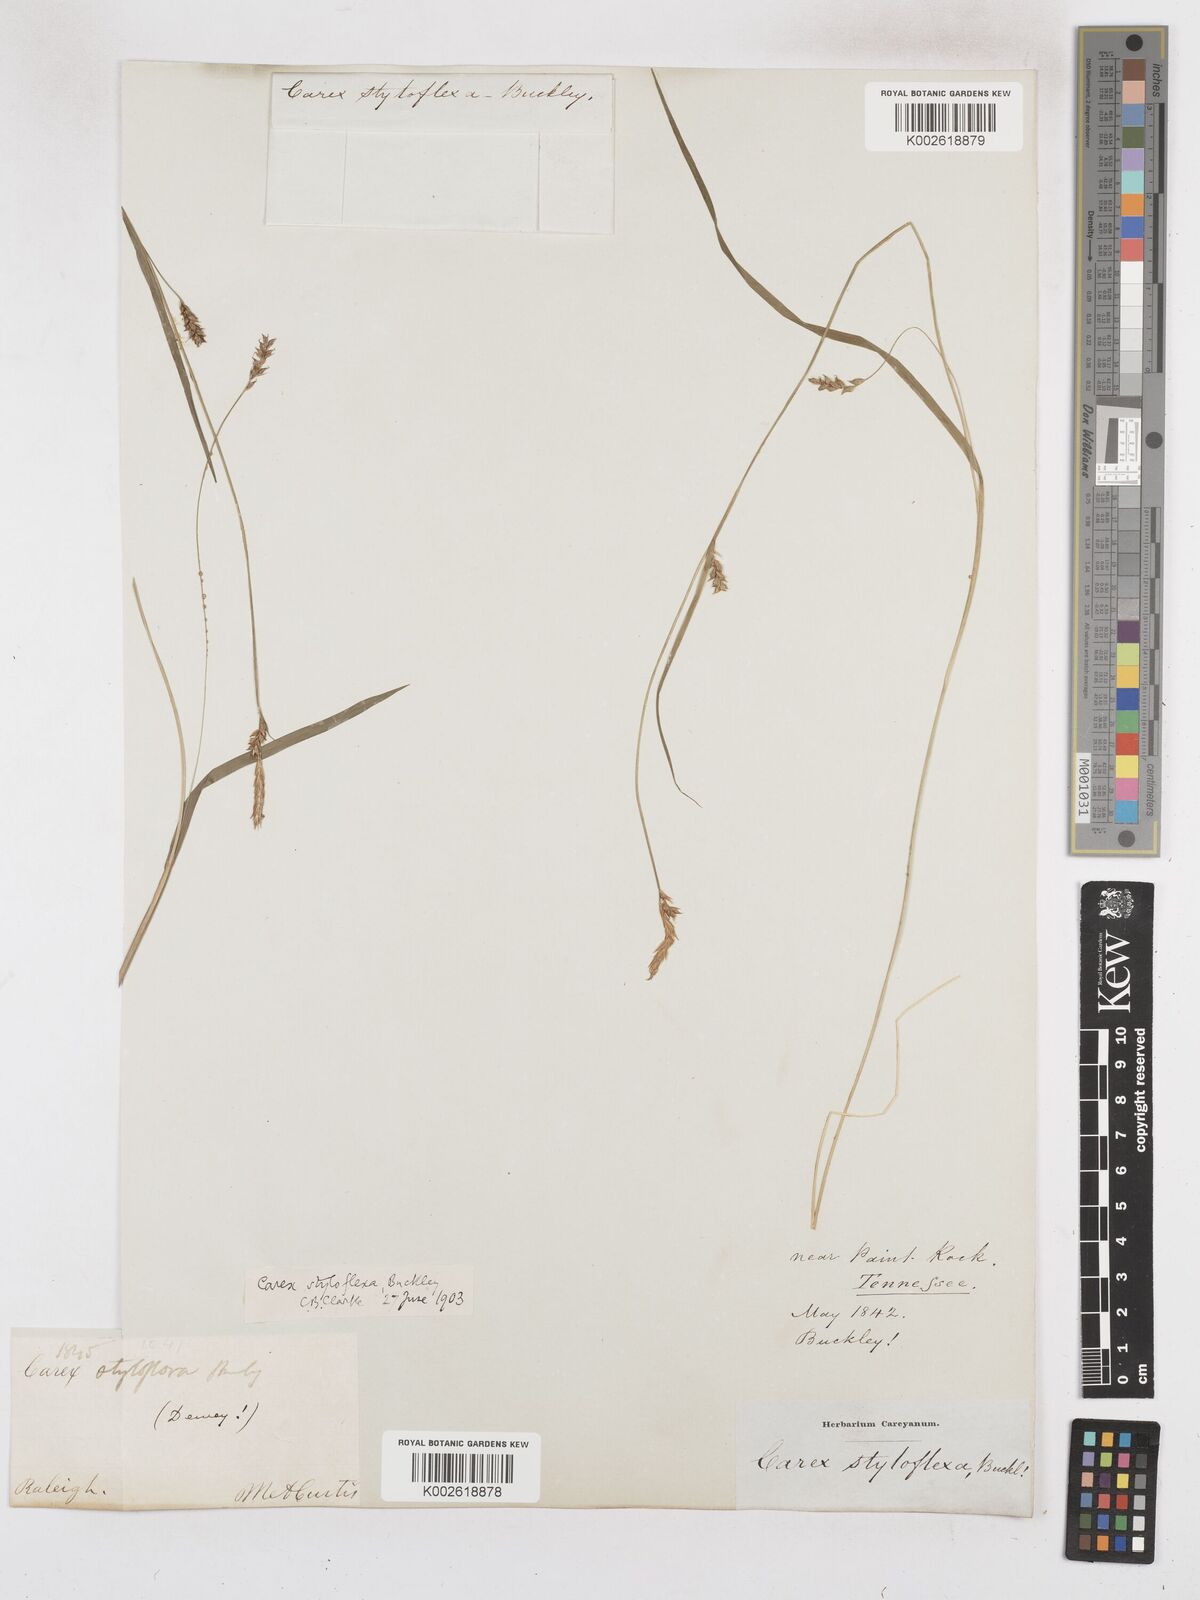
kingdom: Plantae
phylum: Tracheophyta
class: Liliopsida
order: Poales
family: Cyperaceae
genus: Carex
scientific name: Carex styloflexa
